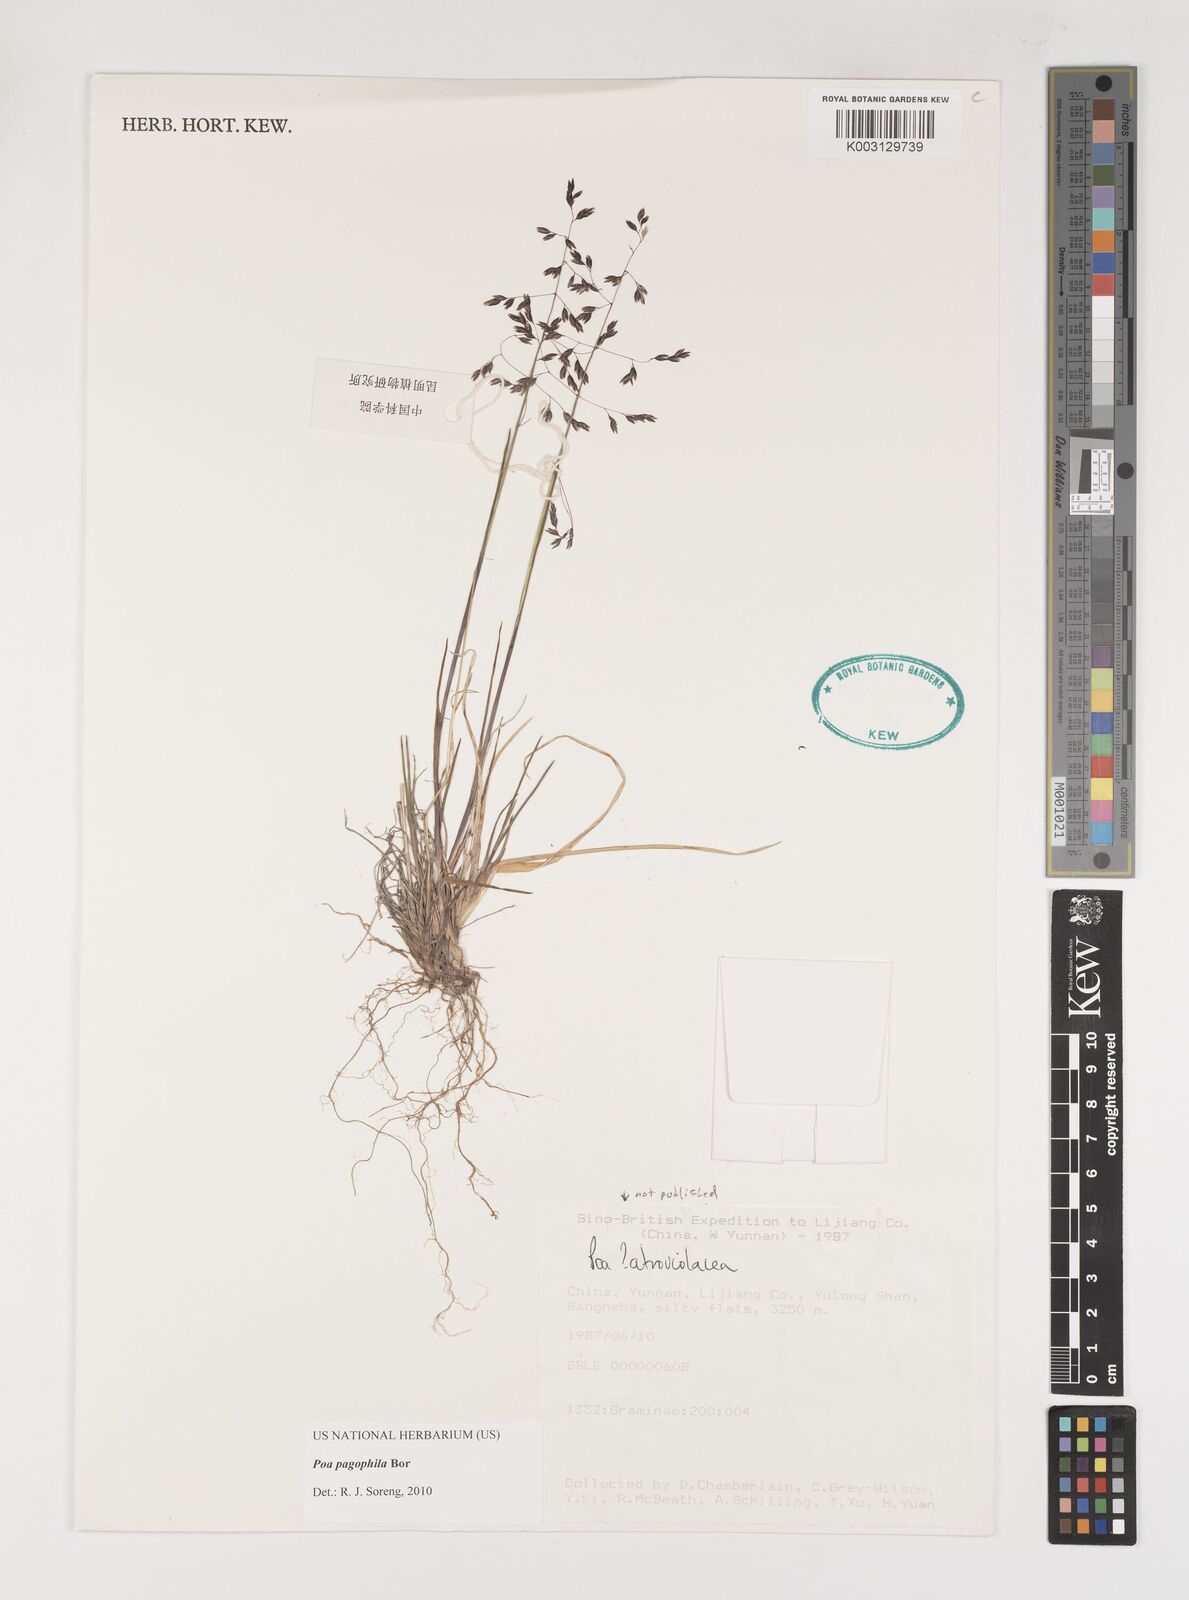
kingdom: Plantae
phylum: Tracheophyta
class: Liliopsida
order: Poales
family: Poaceae
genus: Poa
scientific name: Poa pagophila
